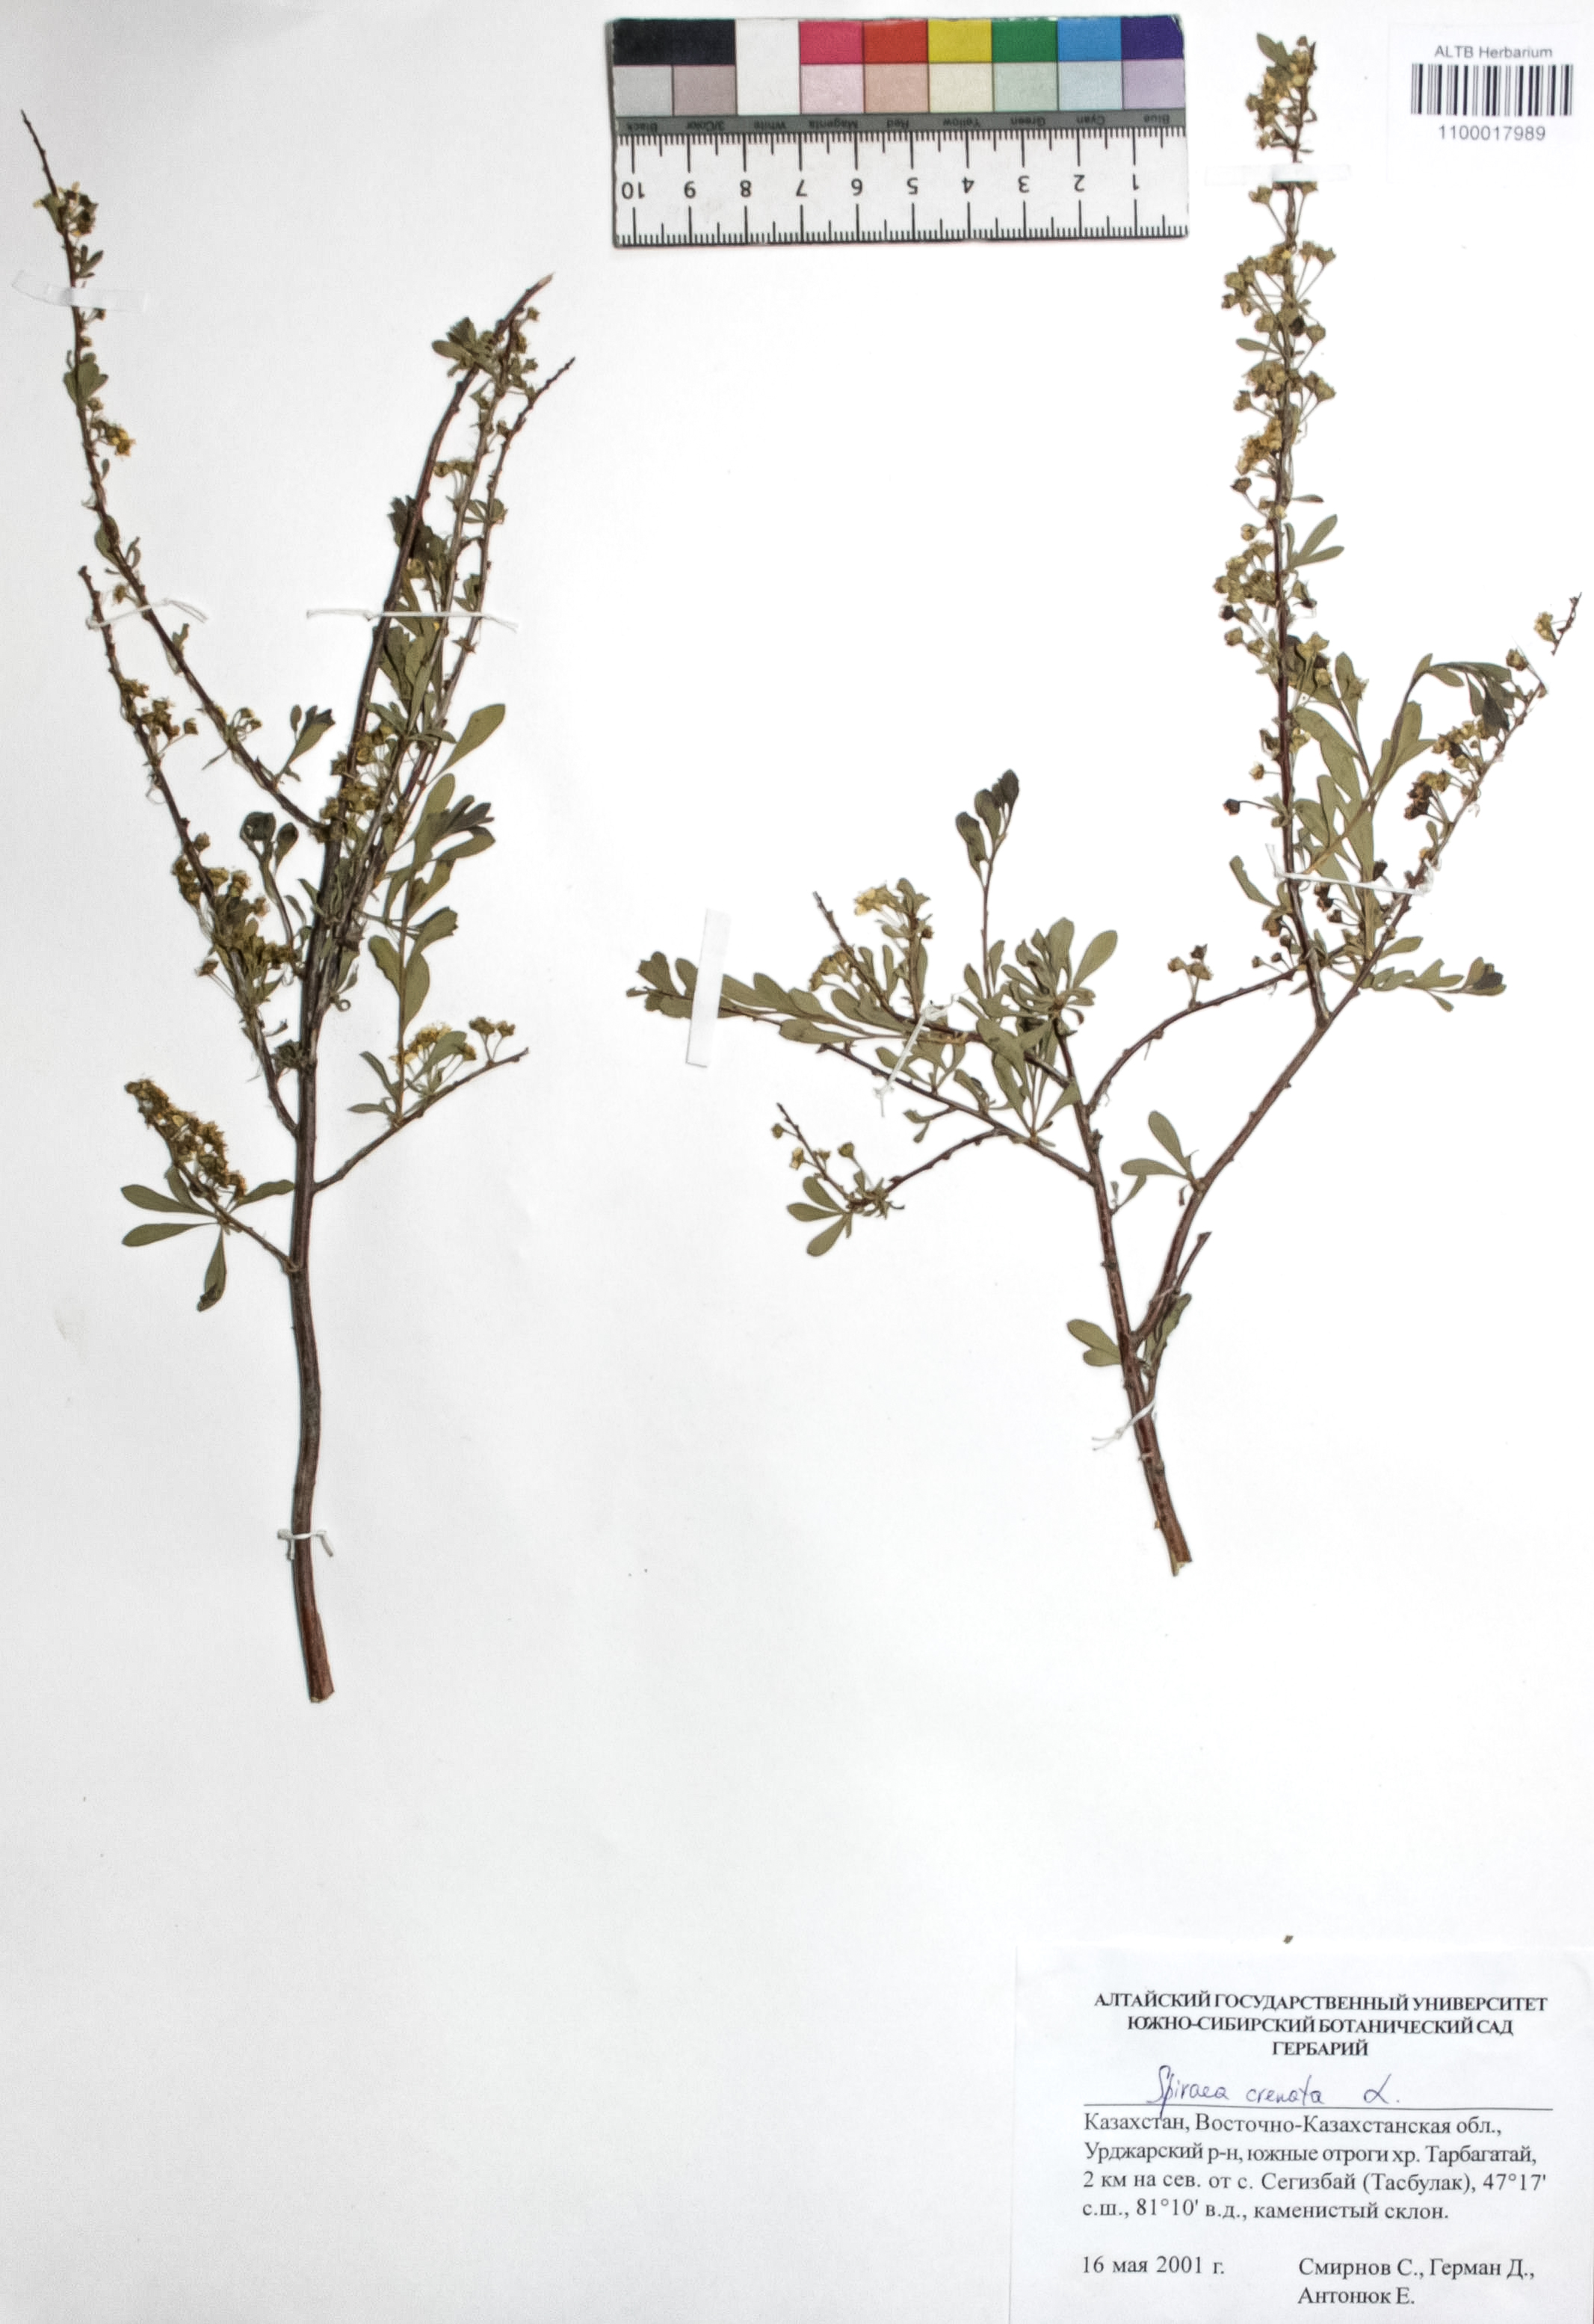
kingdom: Plantae
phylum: Tracheophyta
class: Magnoliopsida
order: Rosales
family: Rosaceae
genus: Spiraea
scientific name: Spiraea crenata
